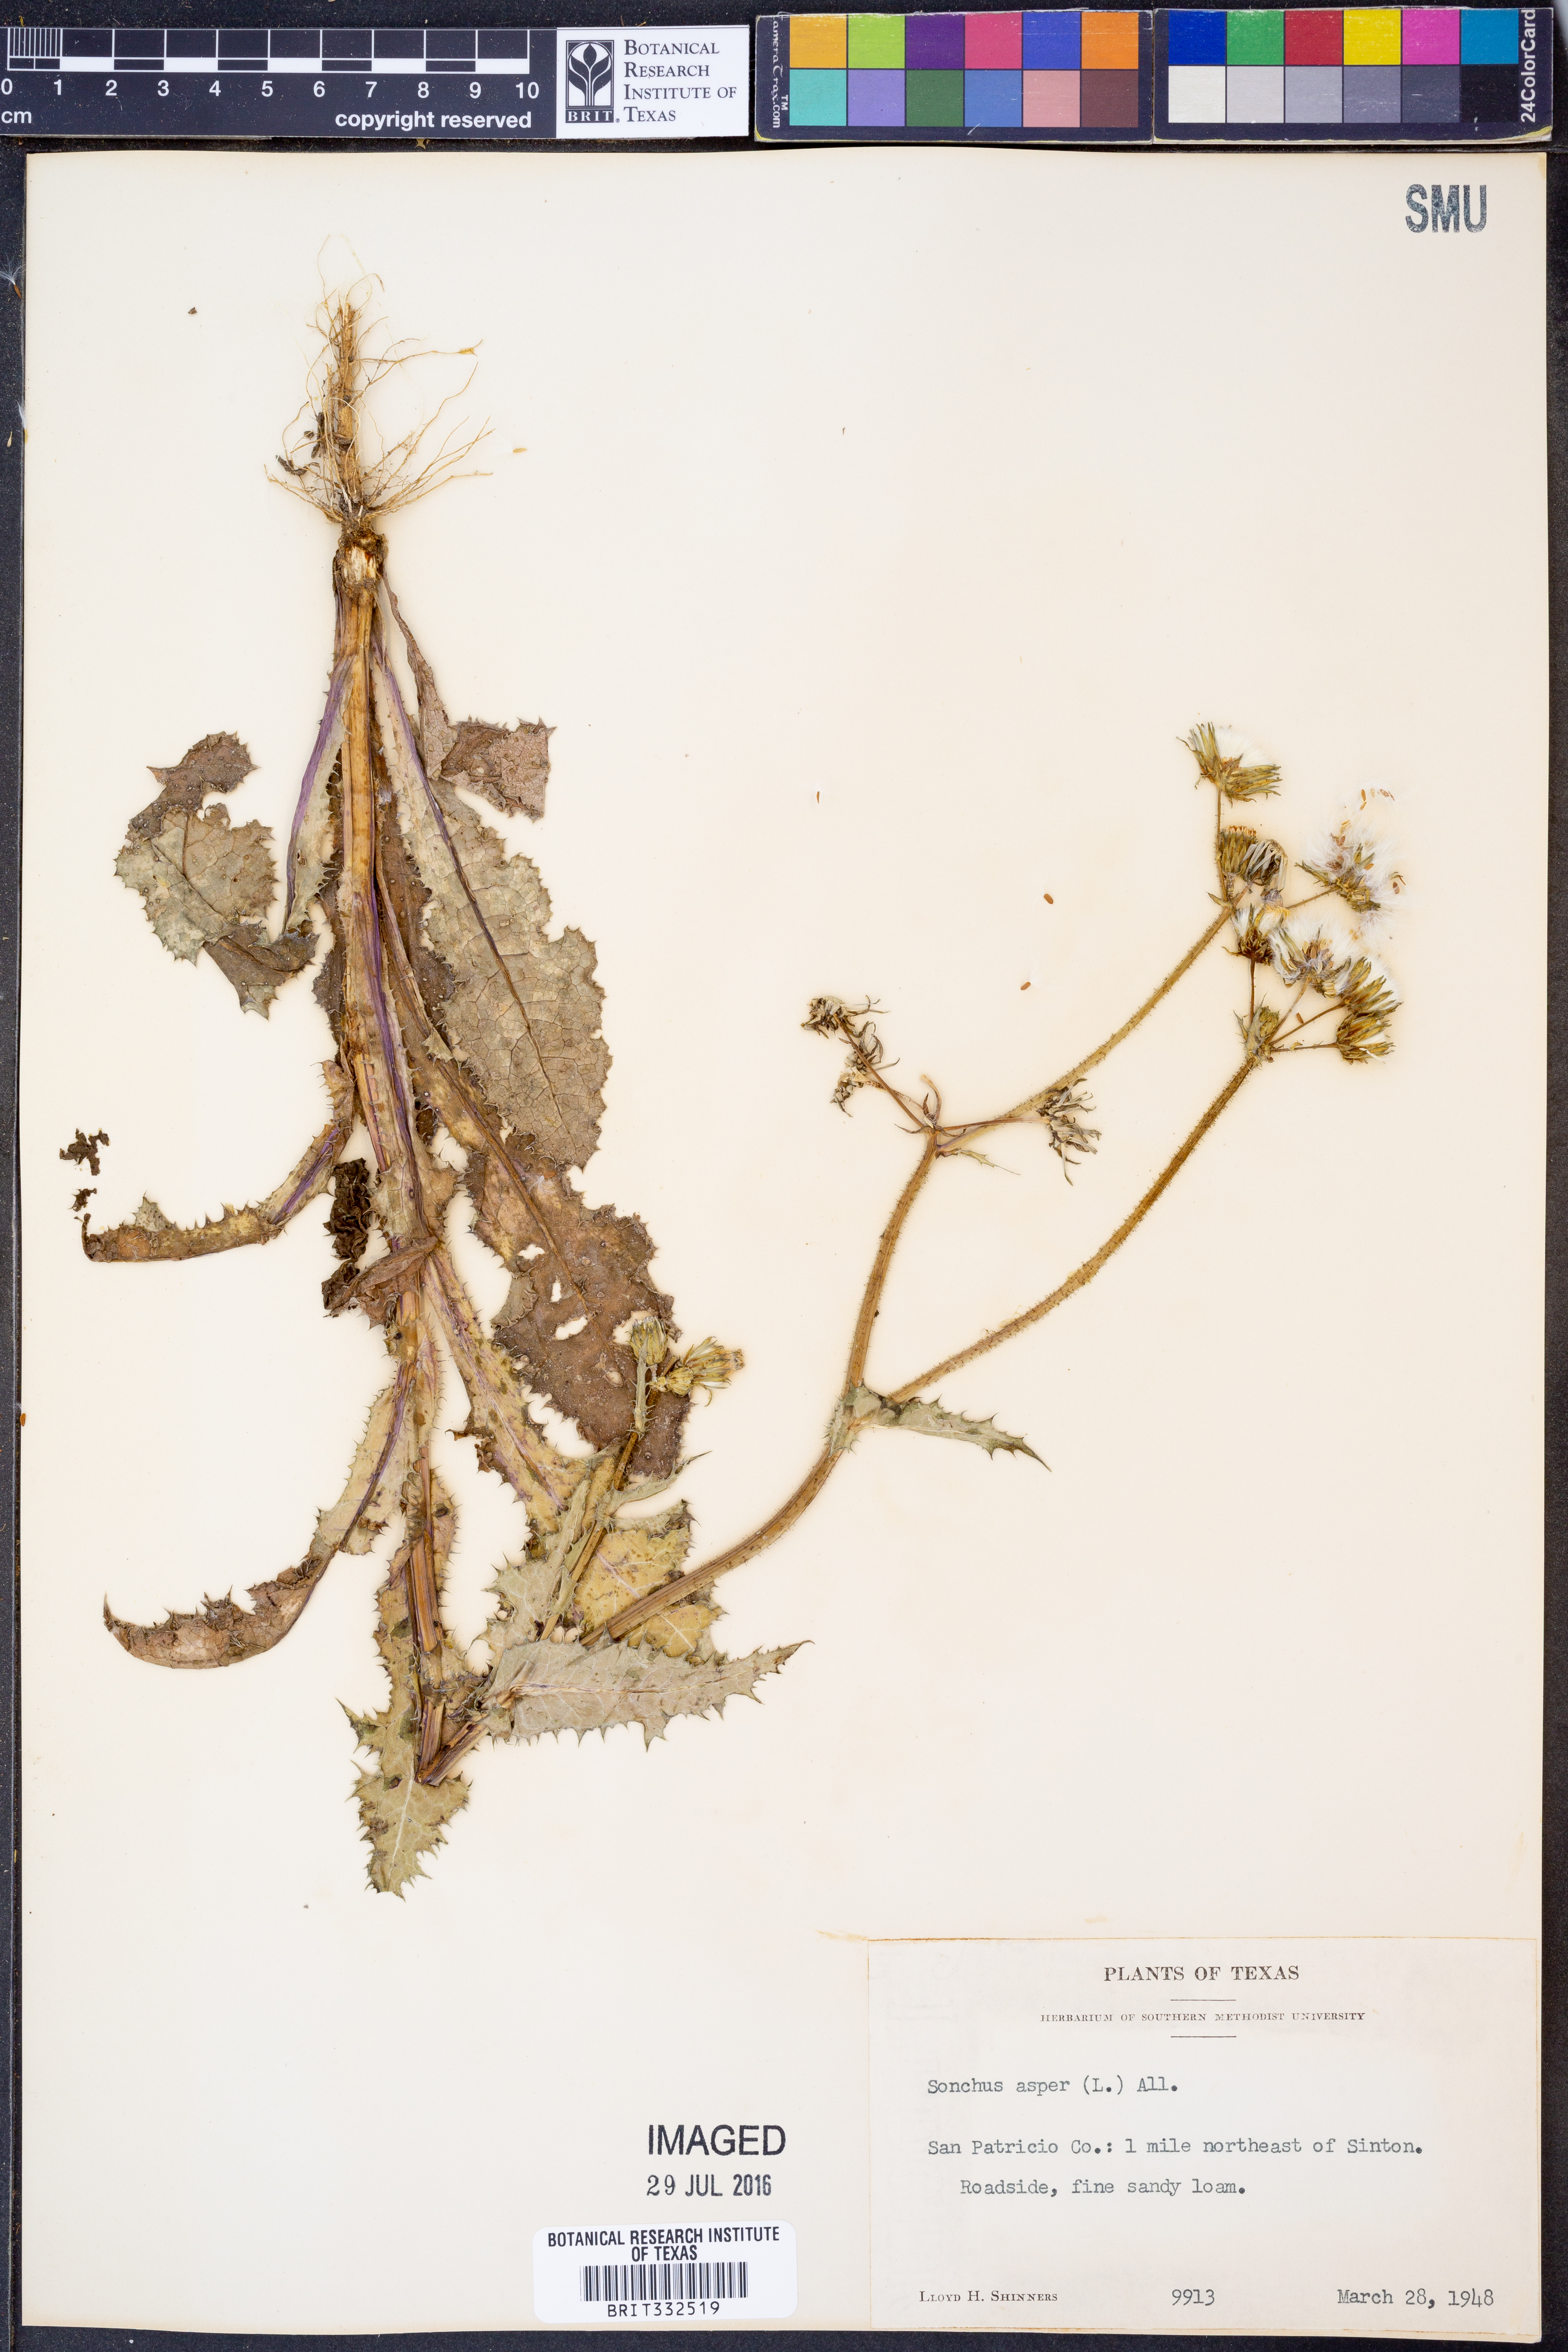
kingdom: Plantae
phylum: Tracheophyta
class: Magnoliopsida
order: Asterales
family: Asteraceae
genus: Sonchus
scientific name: Sonchus asper
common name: Prickly sow-thistle
